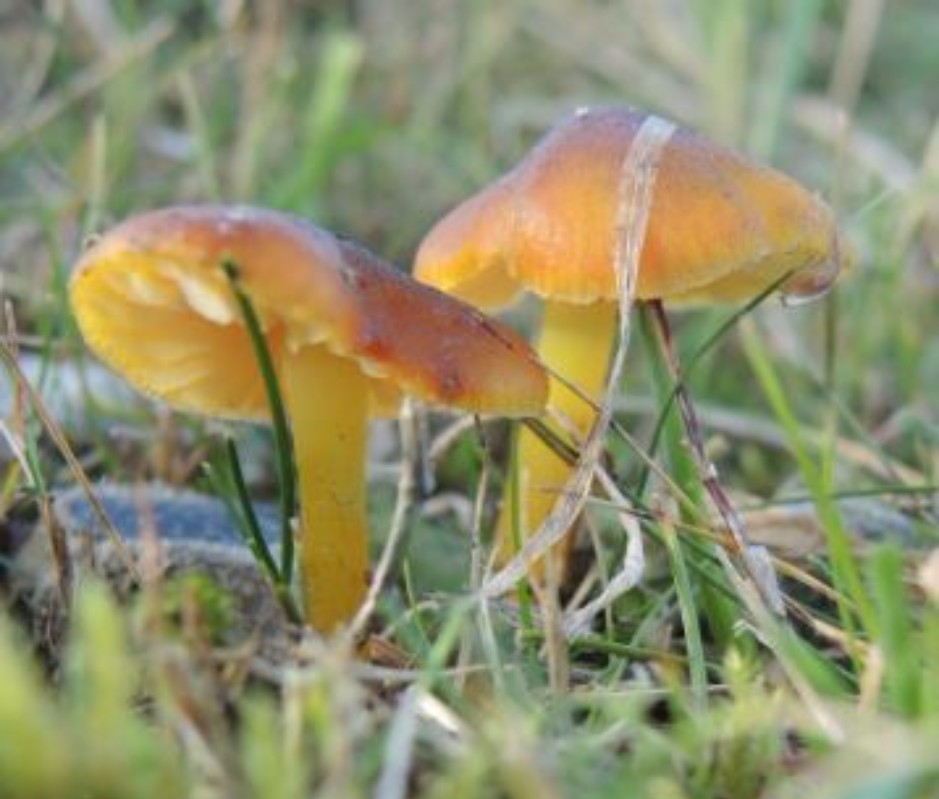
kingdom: Fungi
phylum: Basidiomycota
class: Agaricomycetes
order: Agaricales
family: Hygrophoraceae
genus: Hygrocybe
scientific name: Hygrocybe conica
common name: kegle-vokshat
